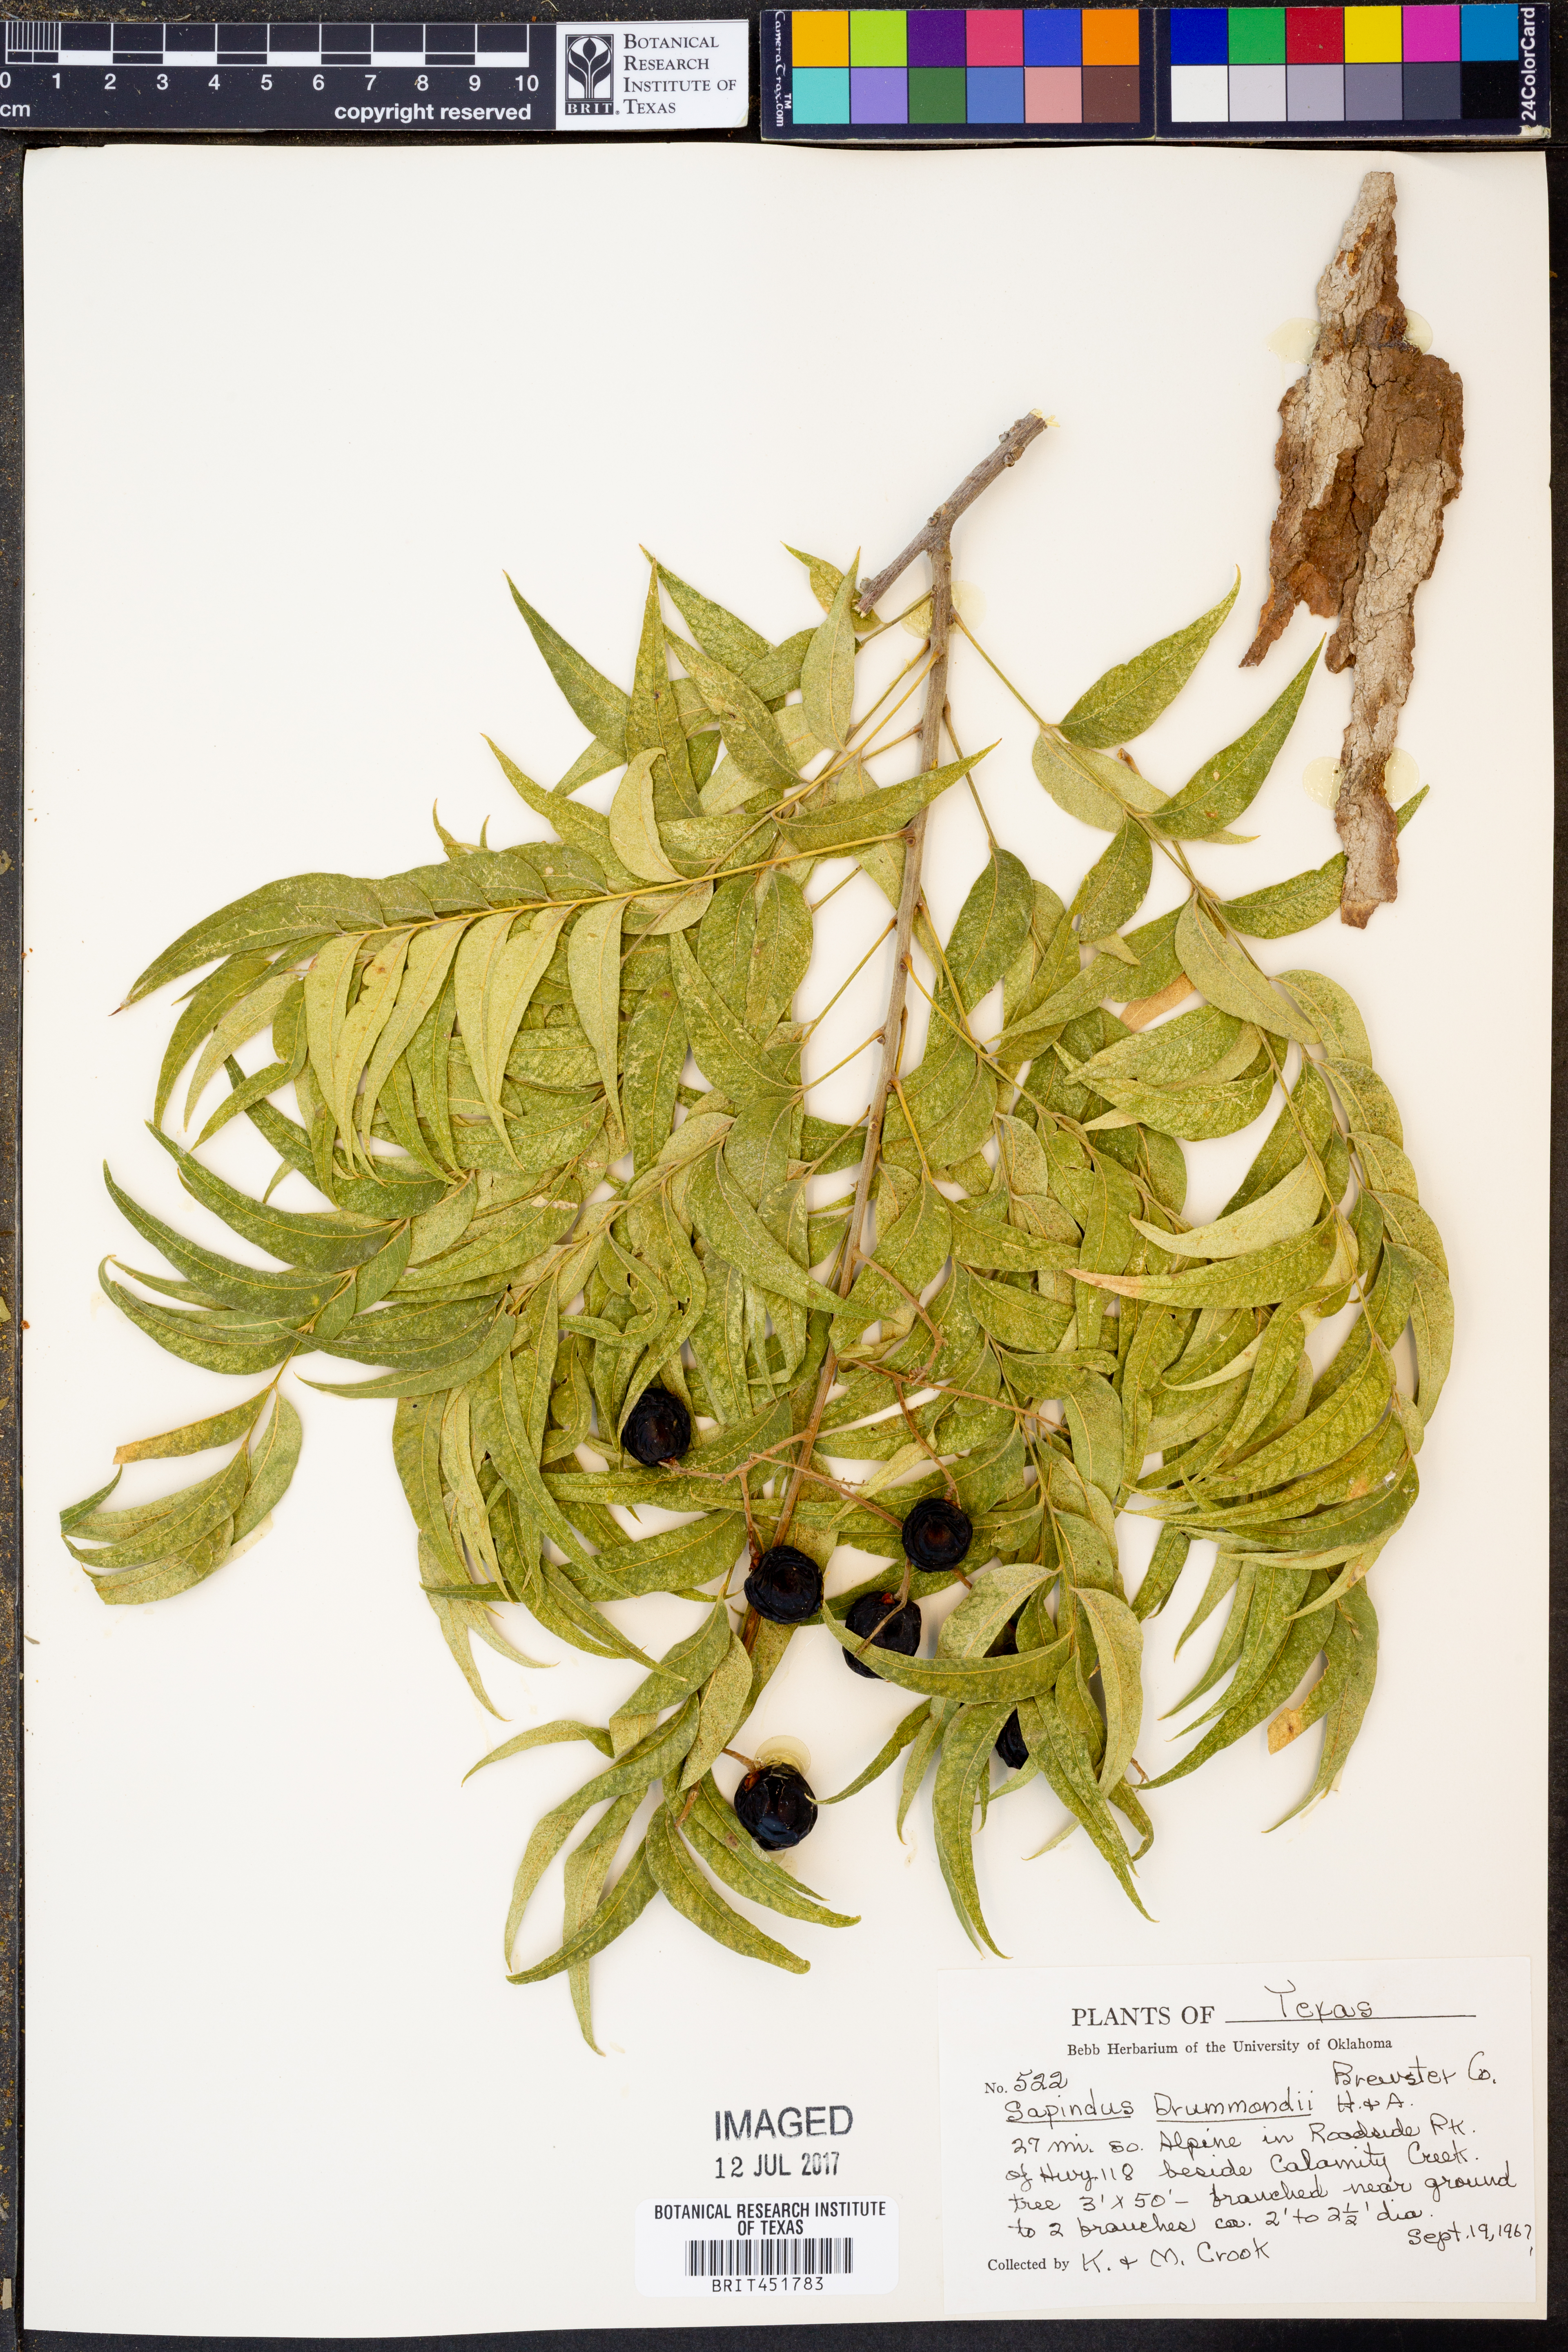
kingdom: Plantae
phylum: Tracheophyta
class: Magnoliopsida
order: Sapindales
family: Sapindaceae
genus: Sapindus
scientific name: Sapindus drummondii
